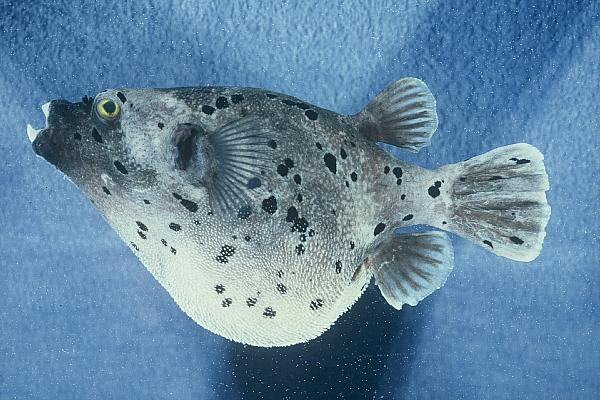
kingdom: Animalia
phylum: Chordata
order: Tetraodontiformes
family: Tetraodontidae
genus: Arothron
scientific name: Arothron nigropunctatus
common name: Black spotted blow fish
